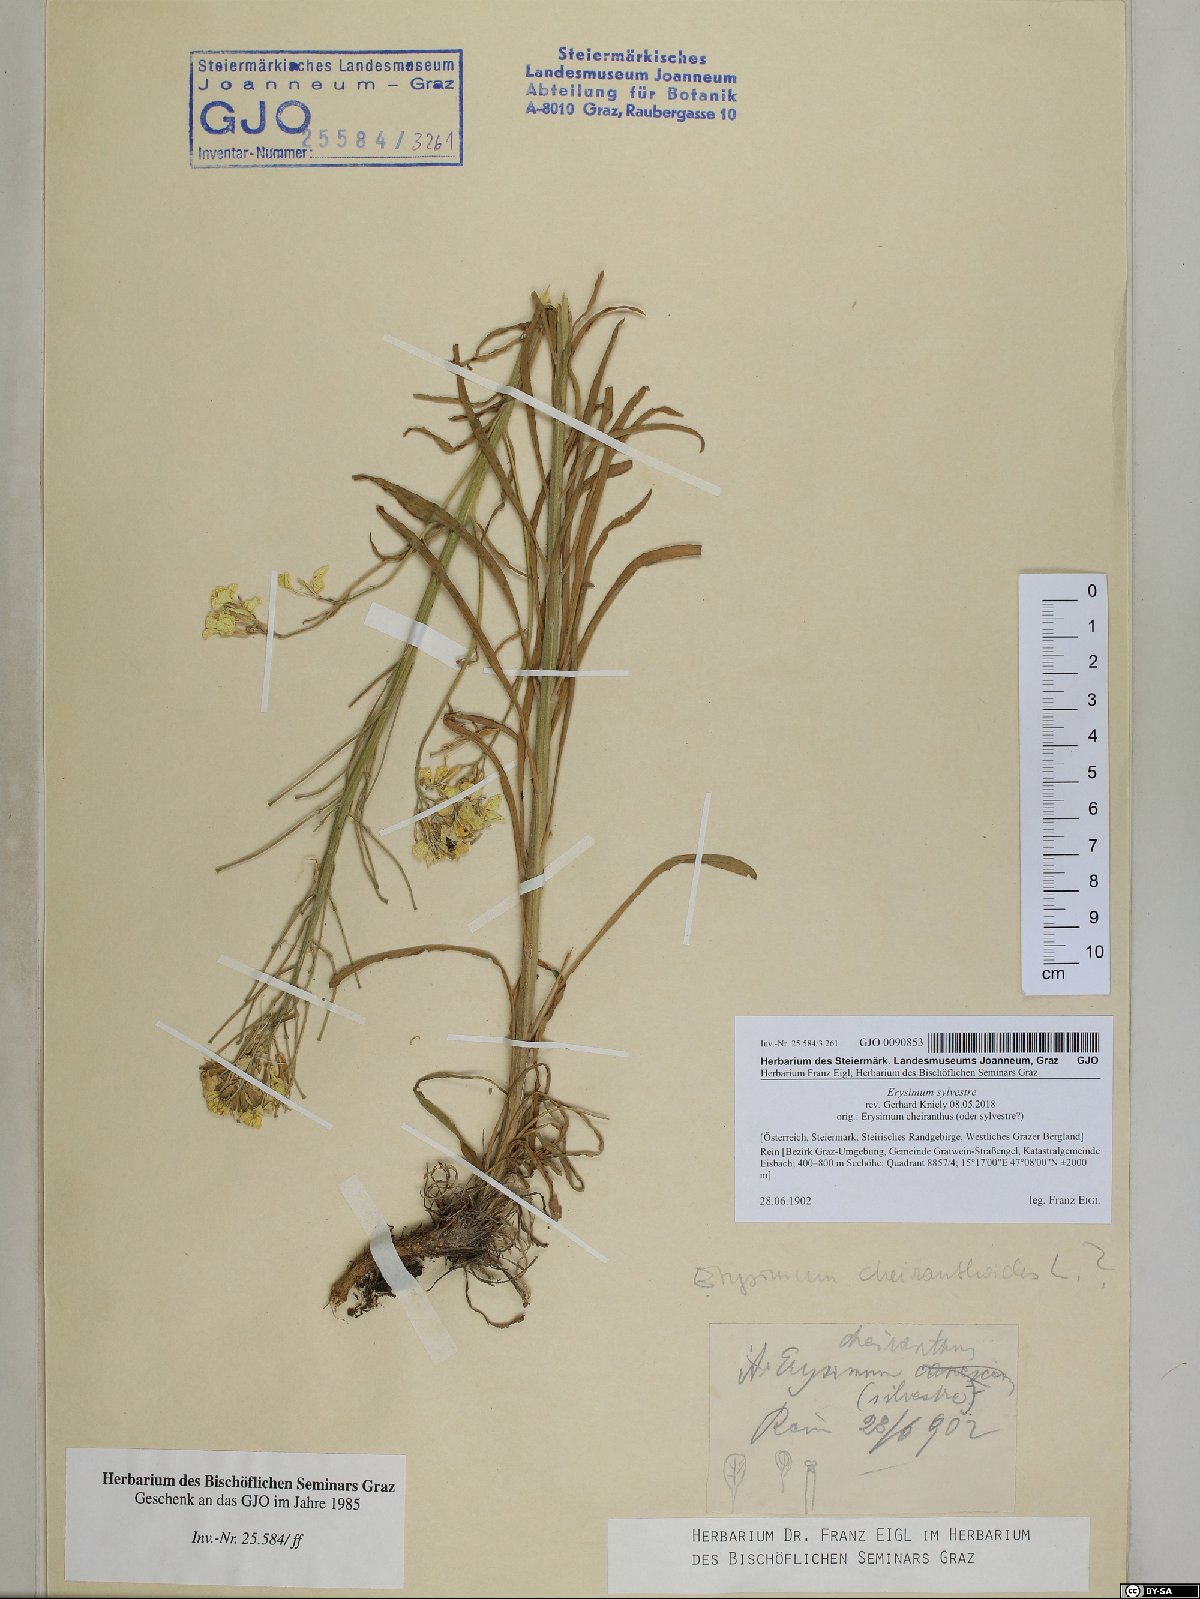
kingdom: Plantae
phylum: Tracheophyta
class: Magnoliopsida
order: Brassicales
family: Brassicaceae
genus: Erysimum
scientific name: Erysimum sylvestre
